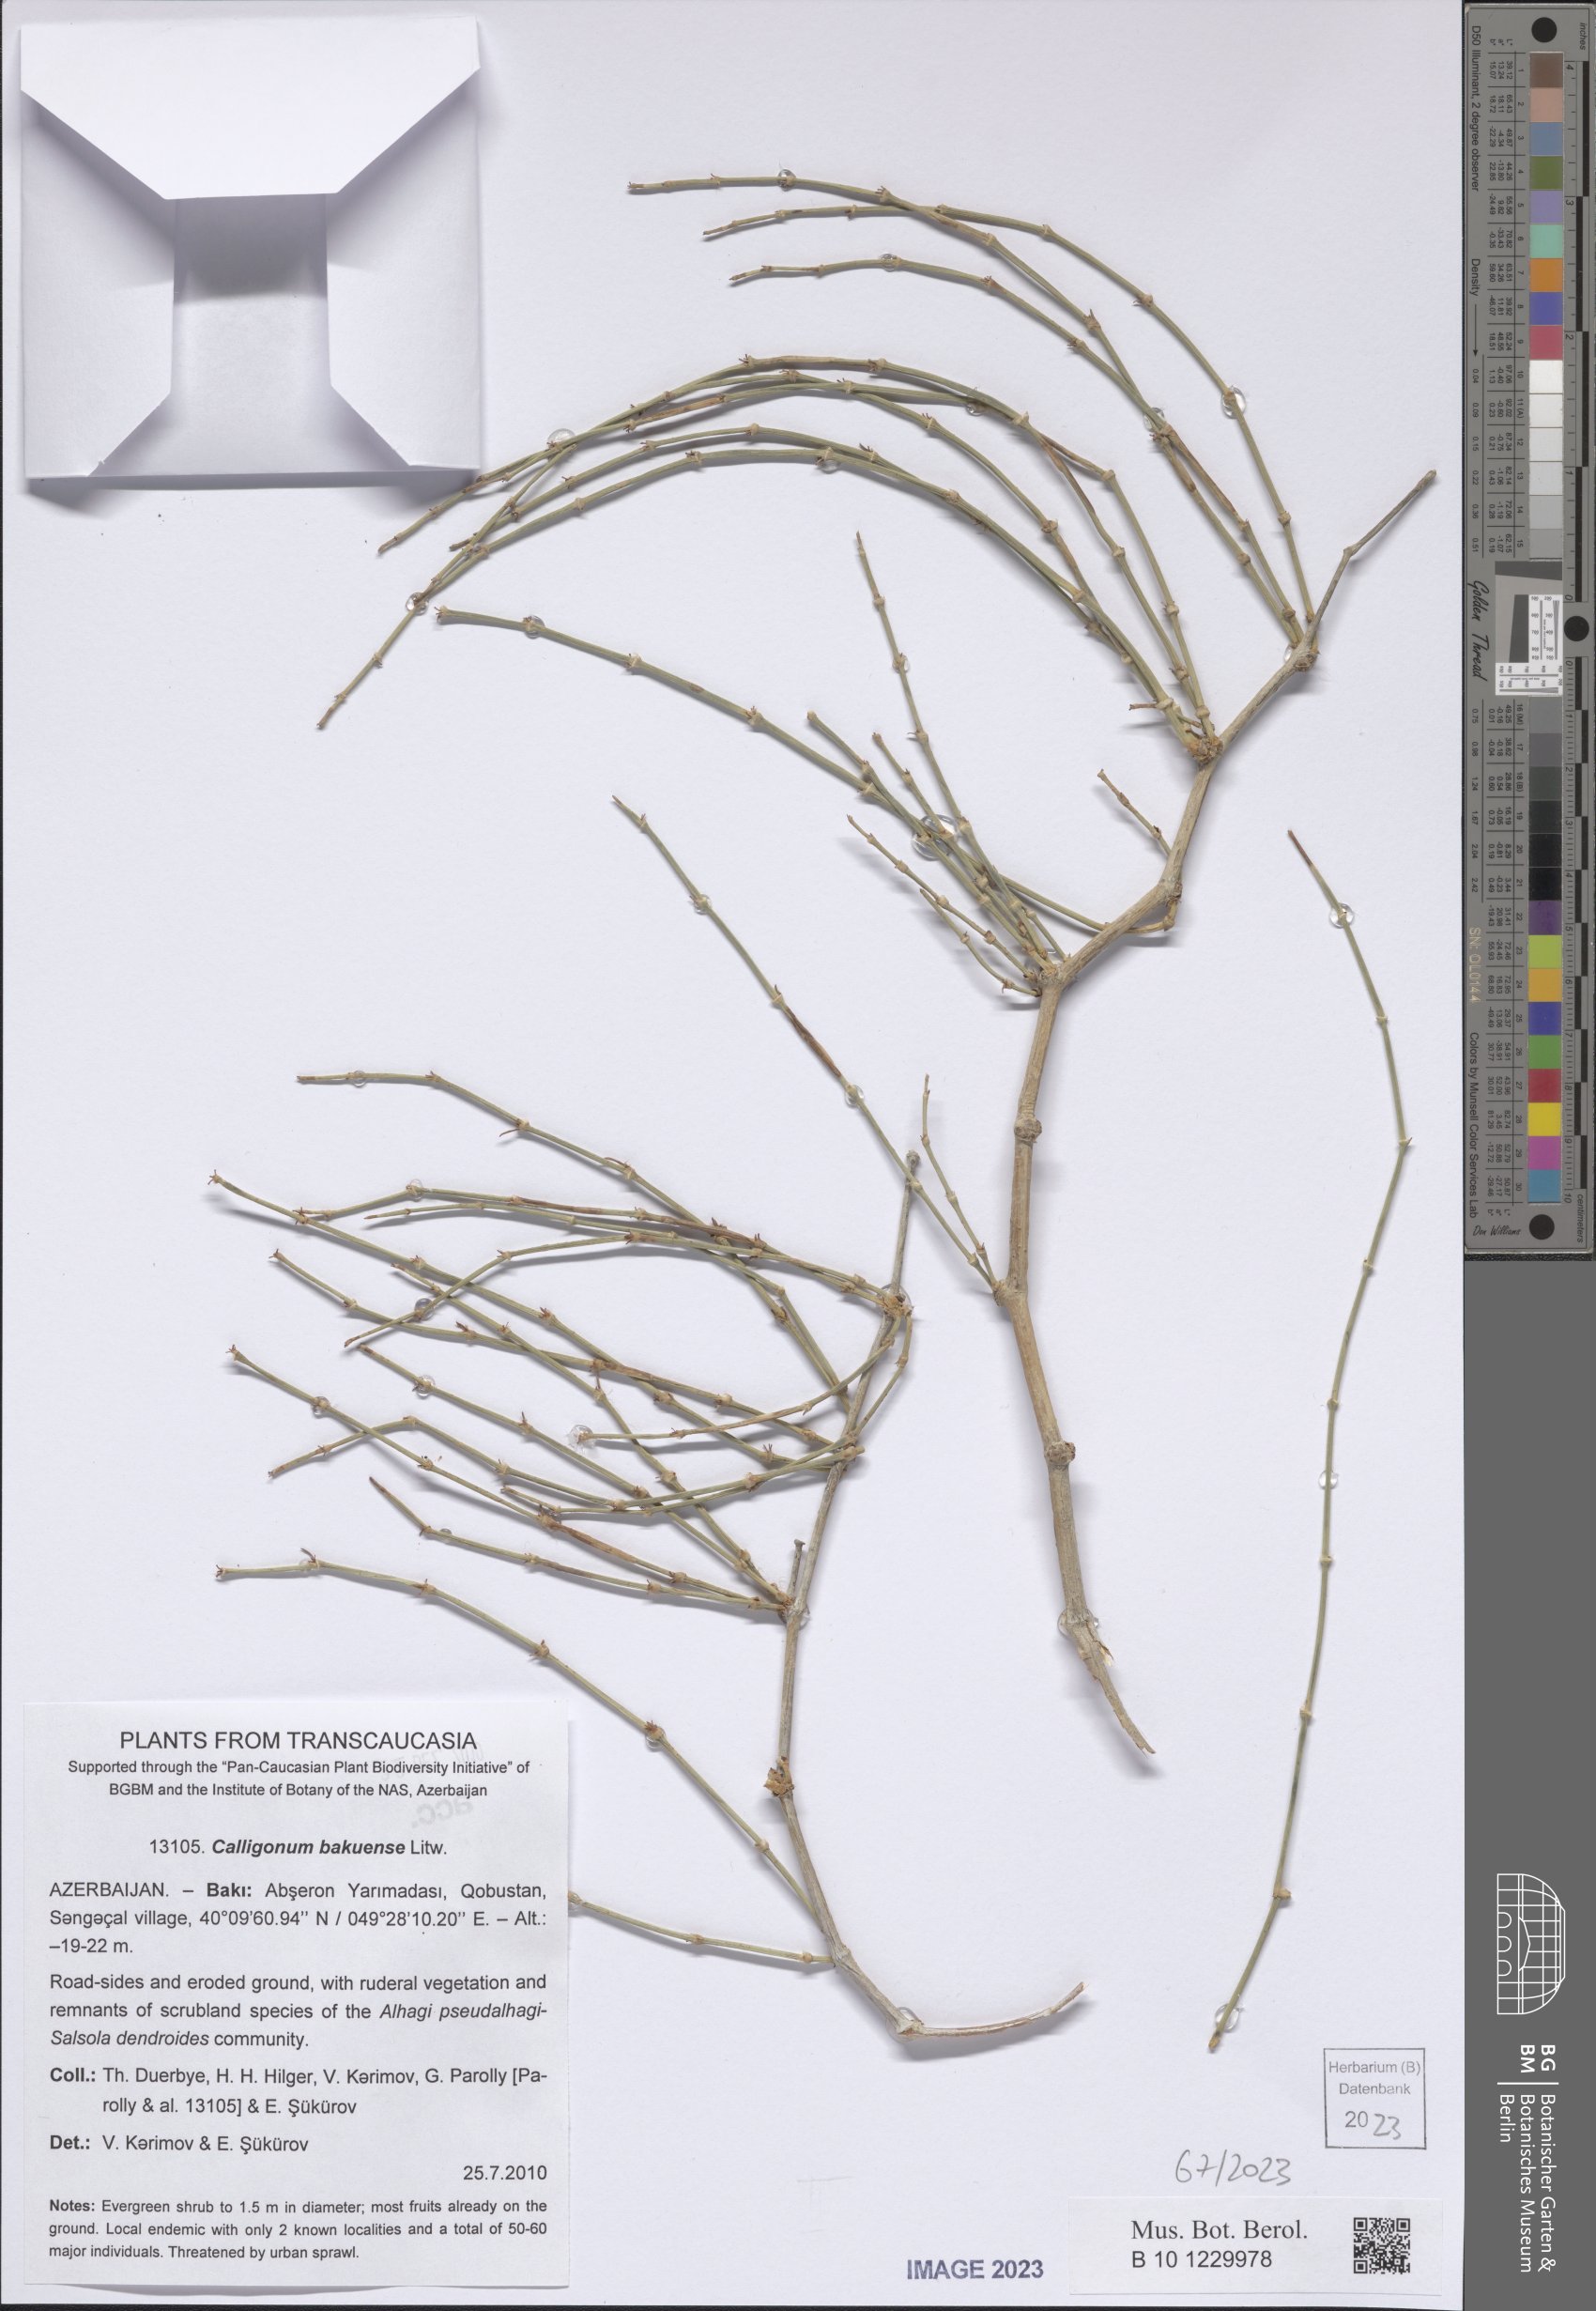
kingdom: Plantae
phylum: Tracheophyta
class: Magnoliopsida
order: Caryophyllales
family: Polygonaceae
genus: Calligonum
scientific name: Calligonum bakuense
